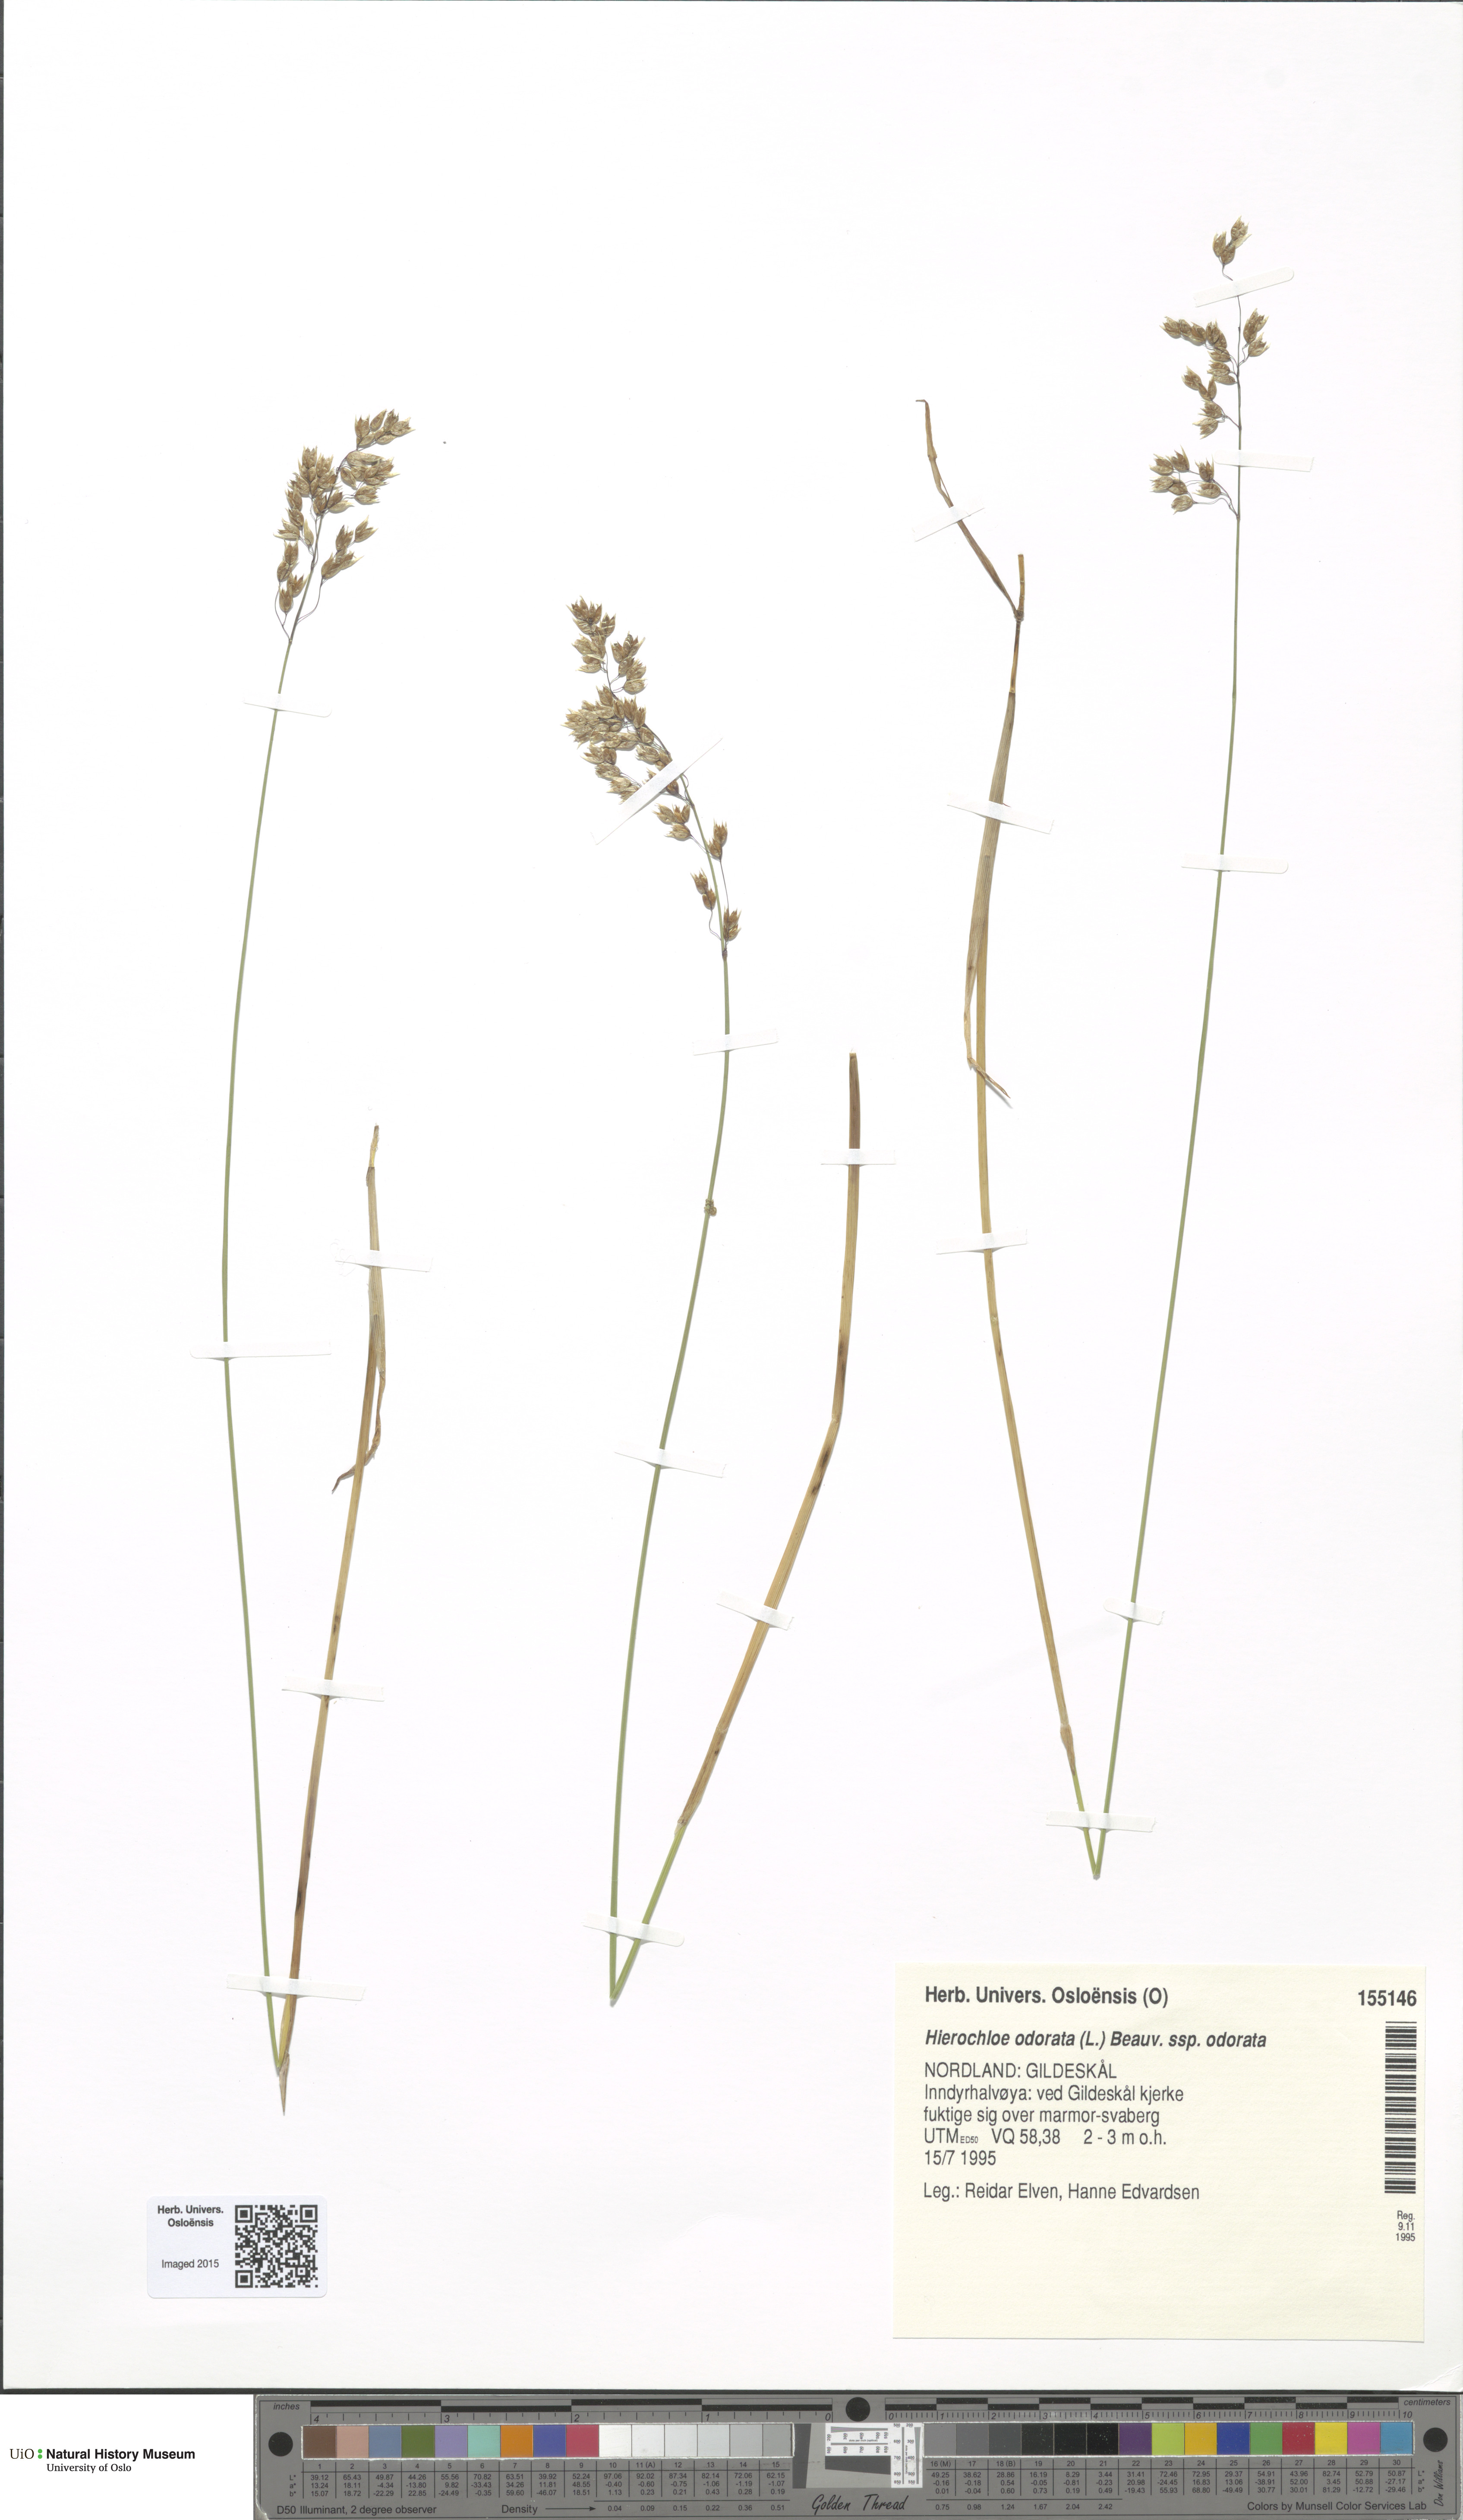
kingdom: Plantae
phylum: Tracheophyta
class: Liliopsida
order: Poales
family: Poaceae
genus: Anthoxanthum
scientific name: Anthoxanthum nitens
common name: Holy grass
